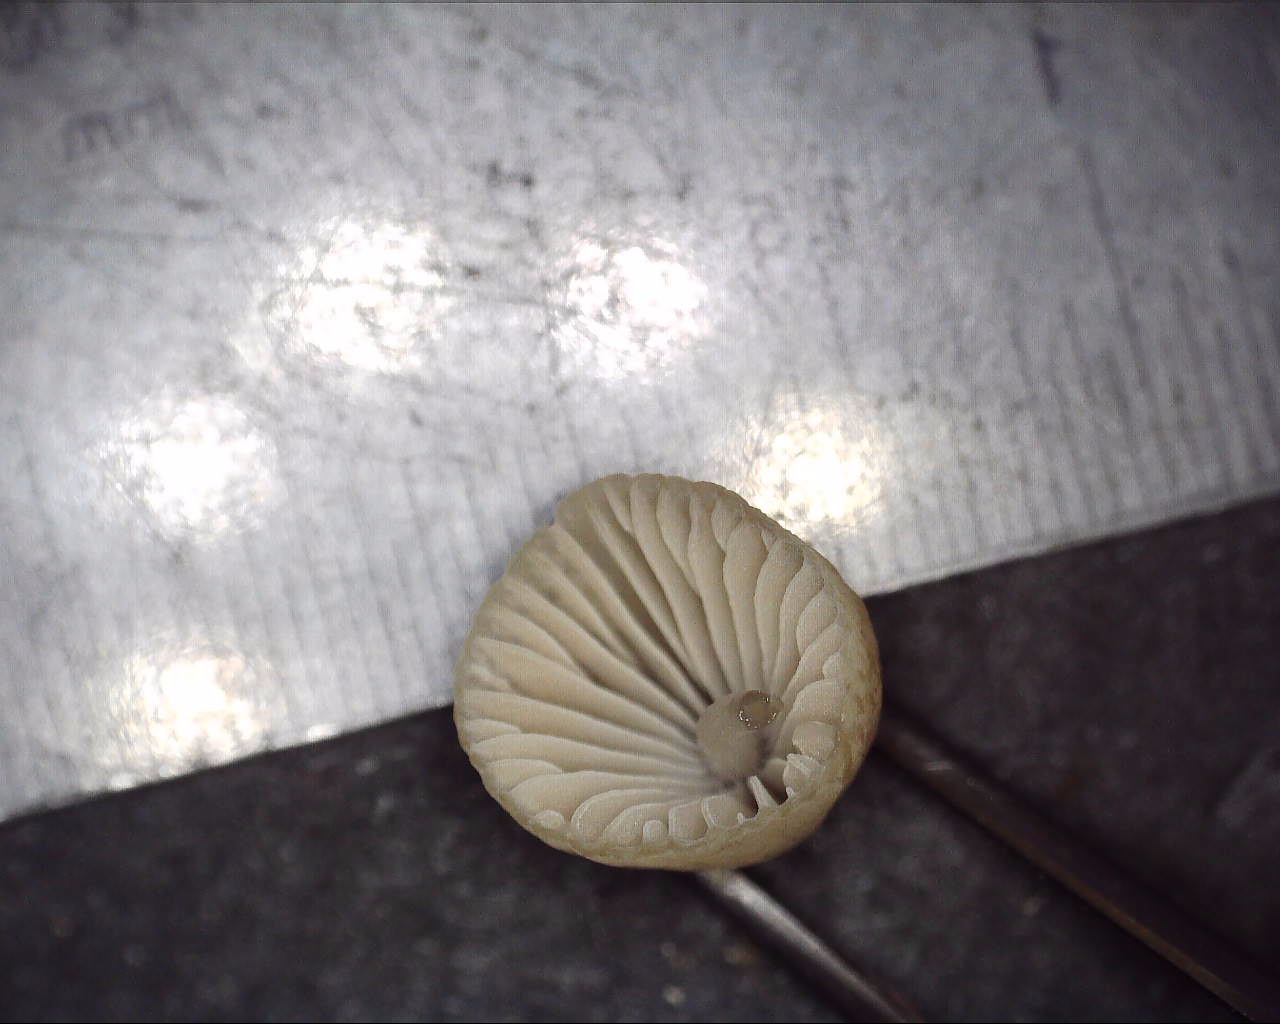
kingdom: Fungi
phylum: Basidiomycota
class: Agaricomycetes
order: Agaricales
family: Mycenaceae
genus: Mycena
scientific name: Mycena
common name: huesvamp
